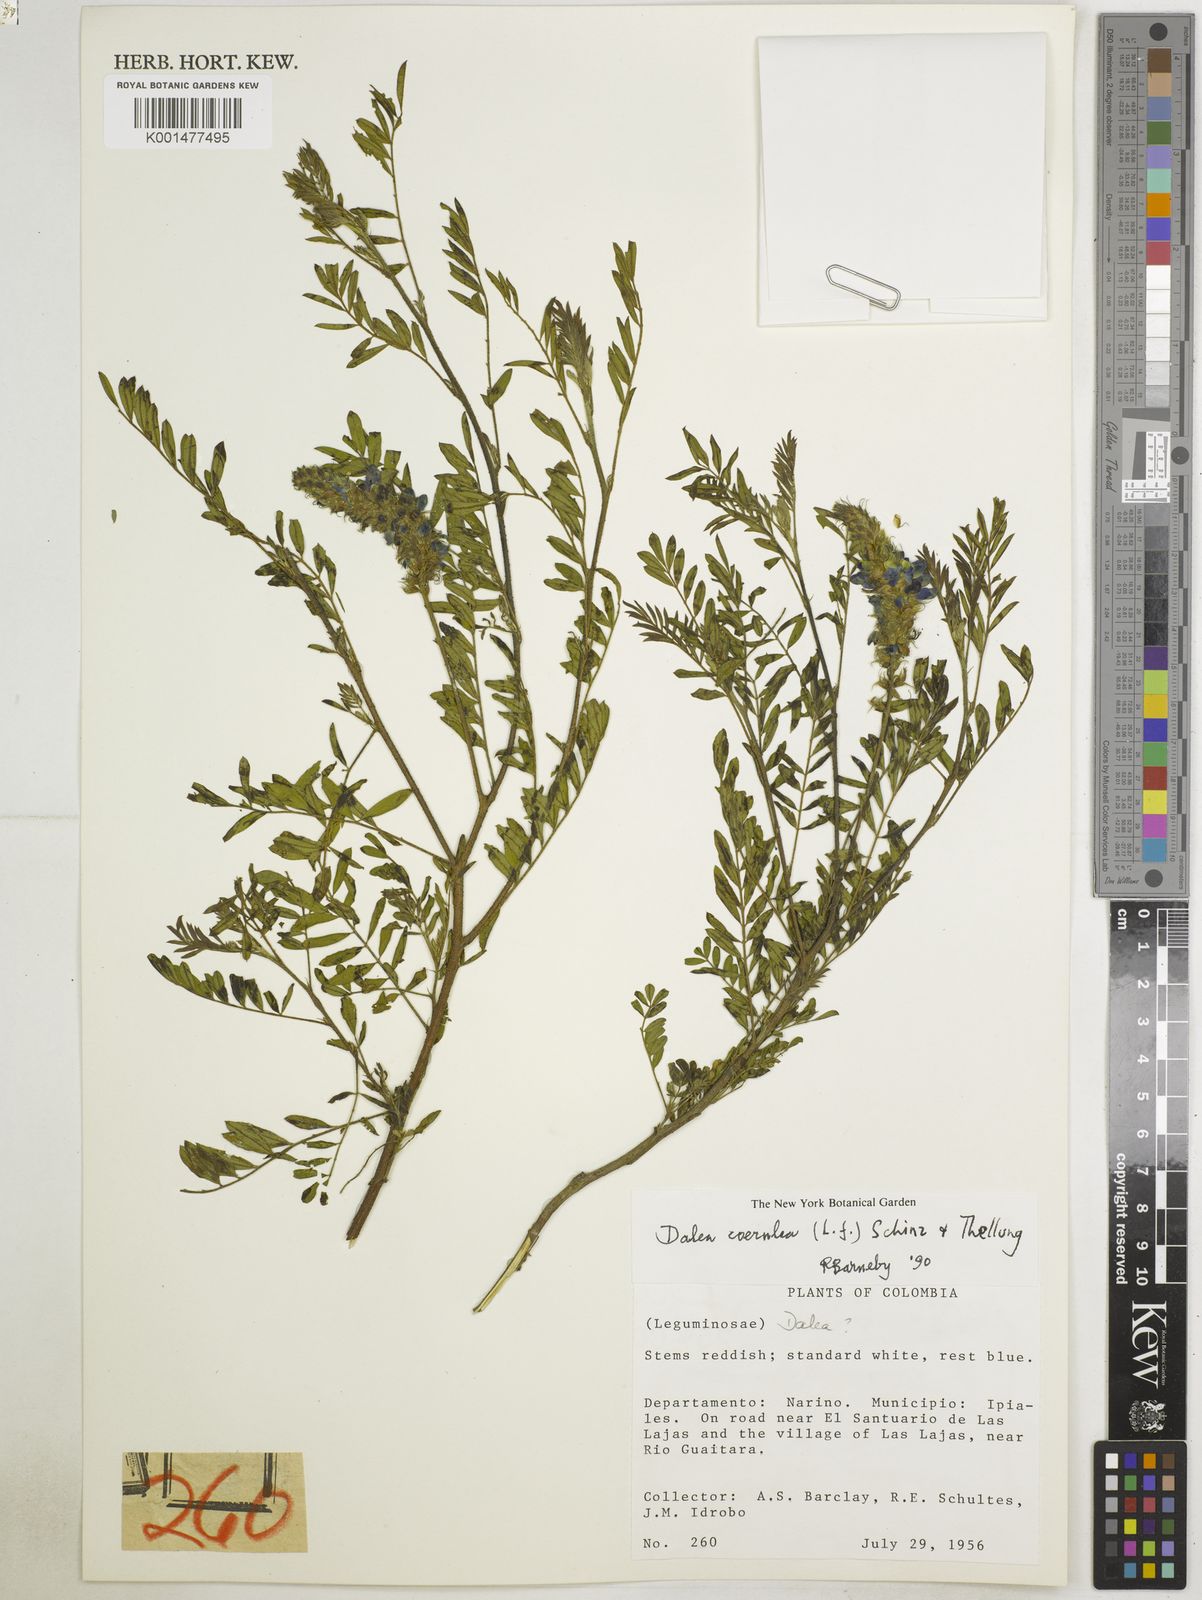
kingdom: Plantae
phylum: Tracheophyta
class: Magnoliopsida
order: Fabales
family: Fabaceae
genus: Dalea
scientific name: Dalea coerulea
